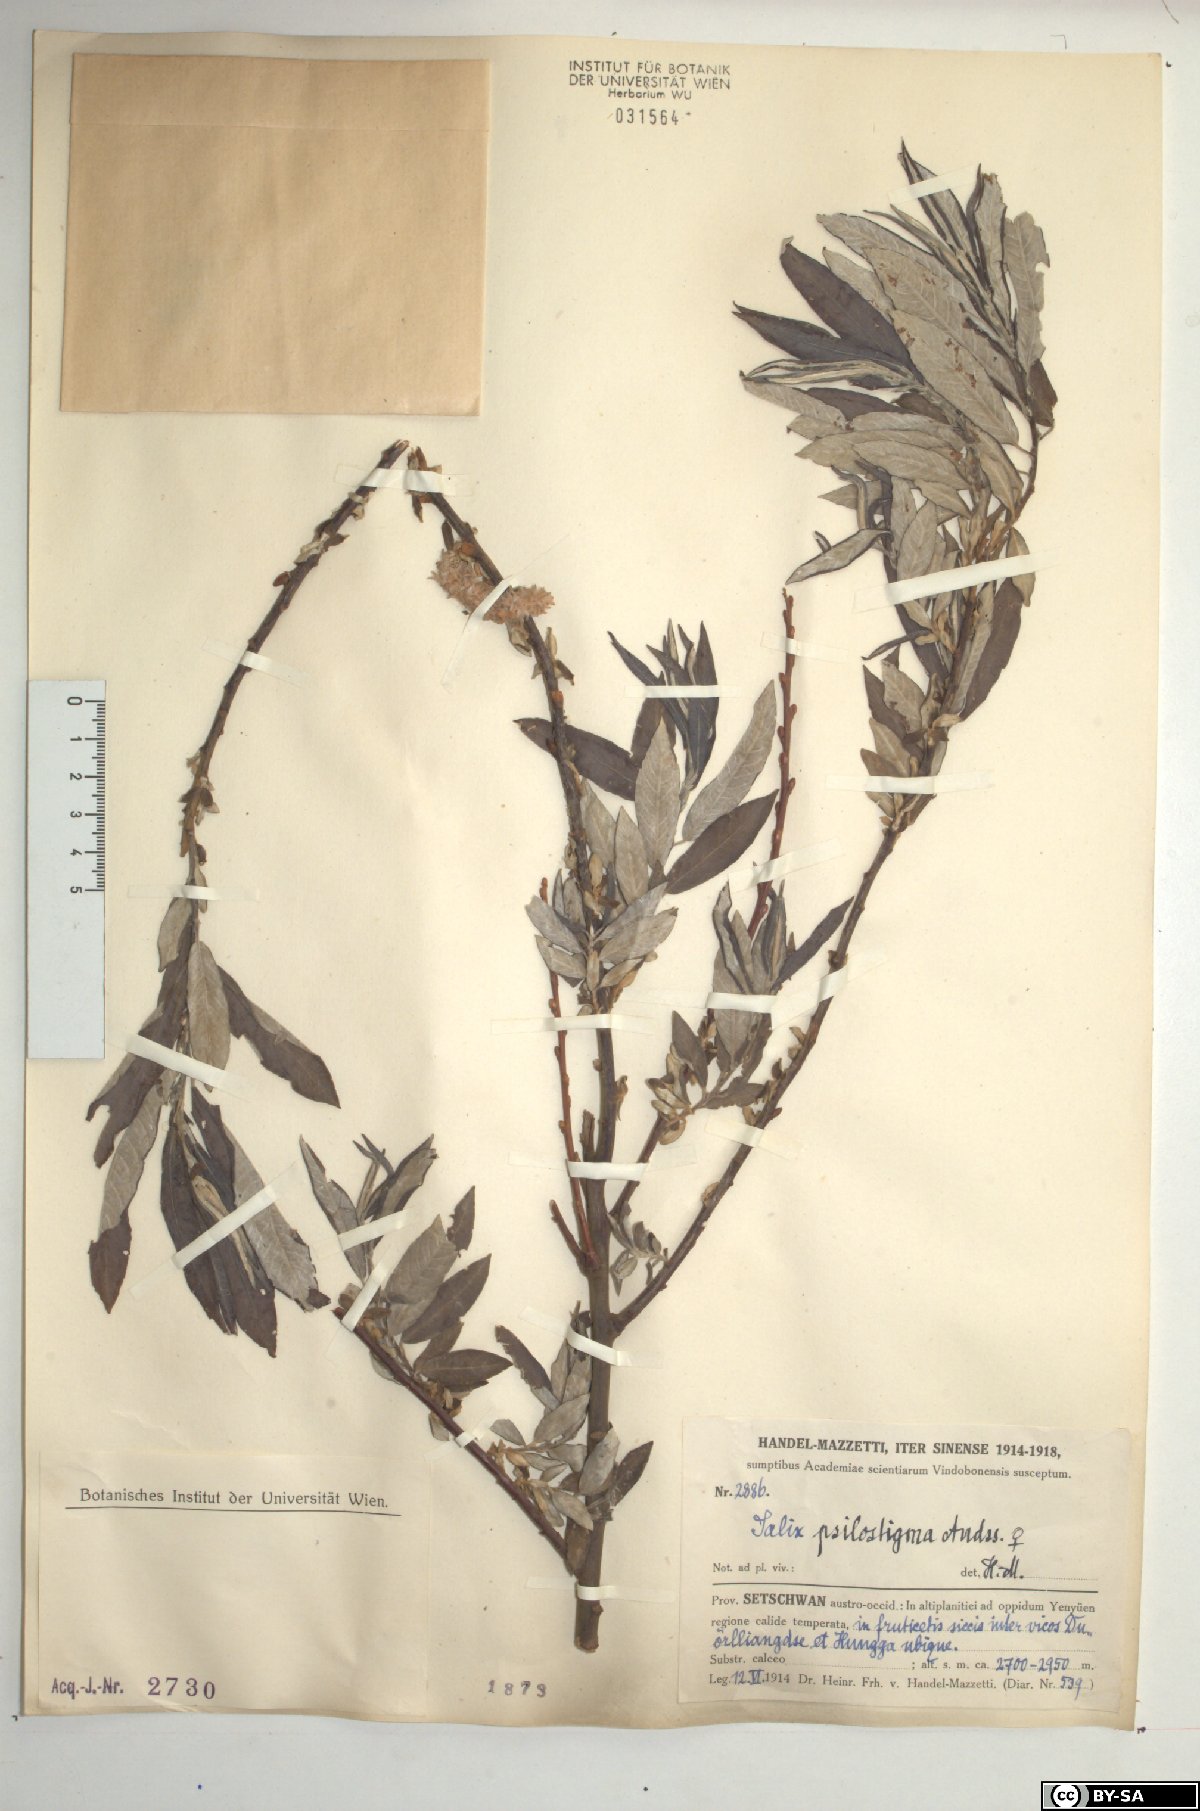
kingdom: Plantae
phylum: Tracheophyta
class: Magnoliopsida
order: Malpighiales
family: Salicaceae
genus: Salix
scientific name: Salix psilostigma
